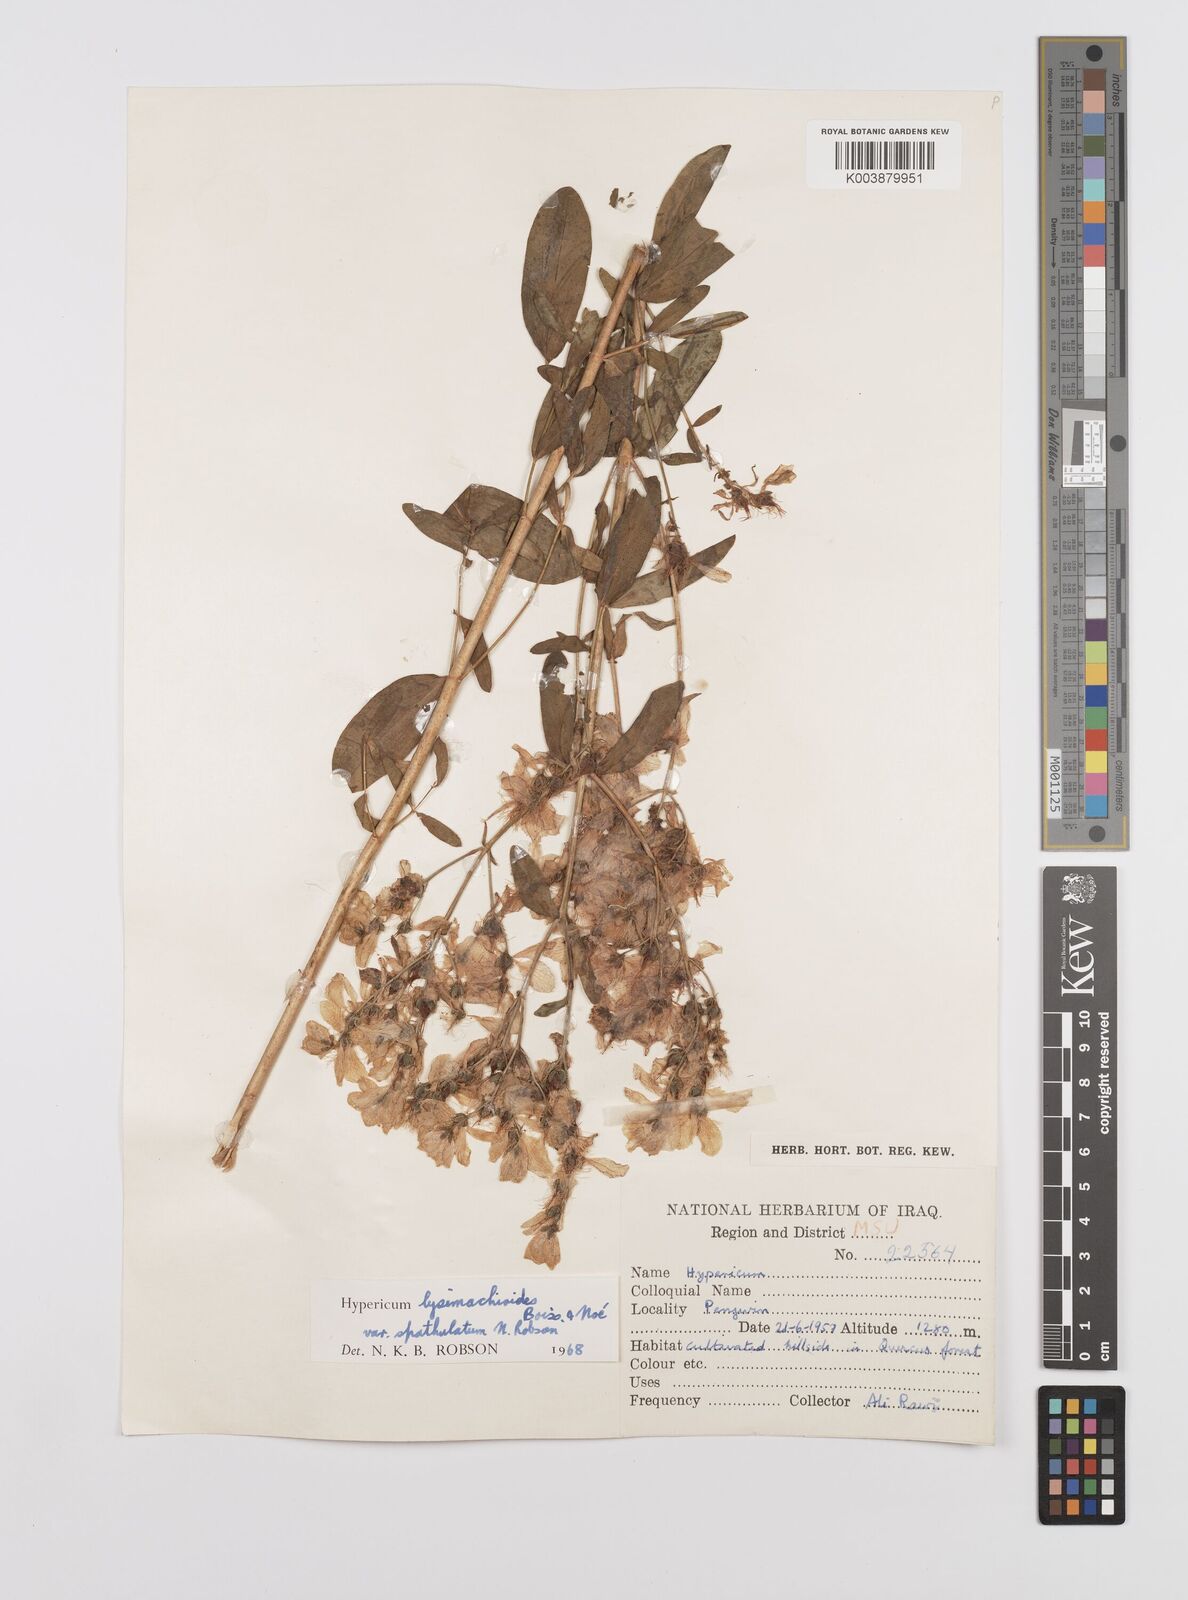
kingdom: Plantae
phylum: Tracheophyta
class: Magnoliopsida
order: Malpighiales
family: Hypericaceae
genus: Hypericum
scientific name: Hypericum lysimachioides
